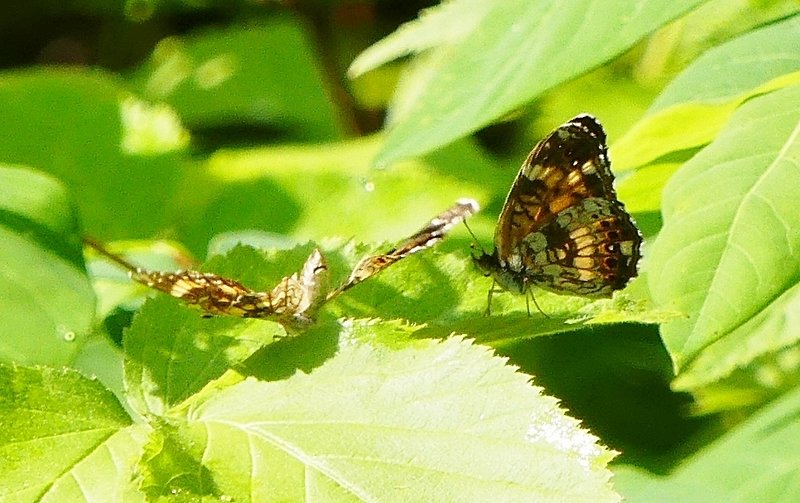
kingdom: Animalia
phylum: Arthropoda
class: Insecta
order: Lepidoptera
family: Nymphalidae
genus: Chlosyne
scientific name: Chlosyne nycteis
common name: Silvery Checkerspot
